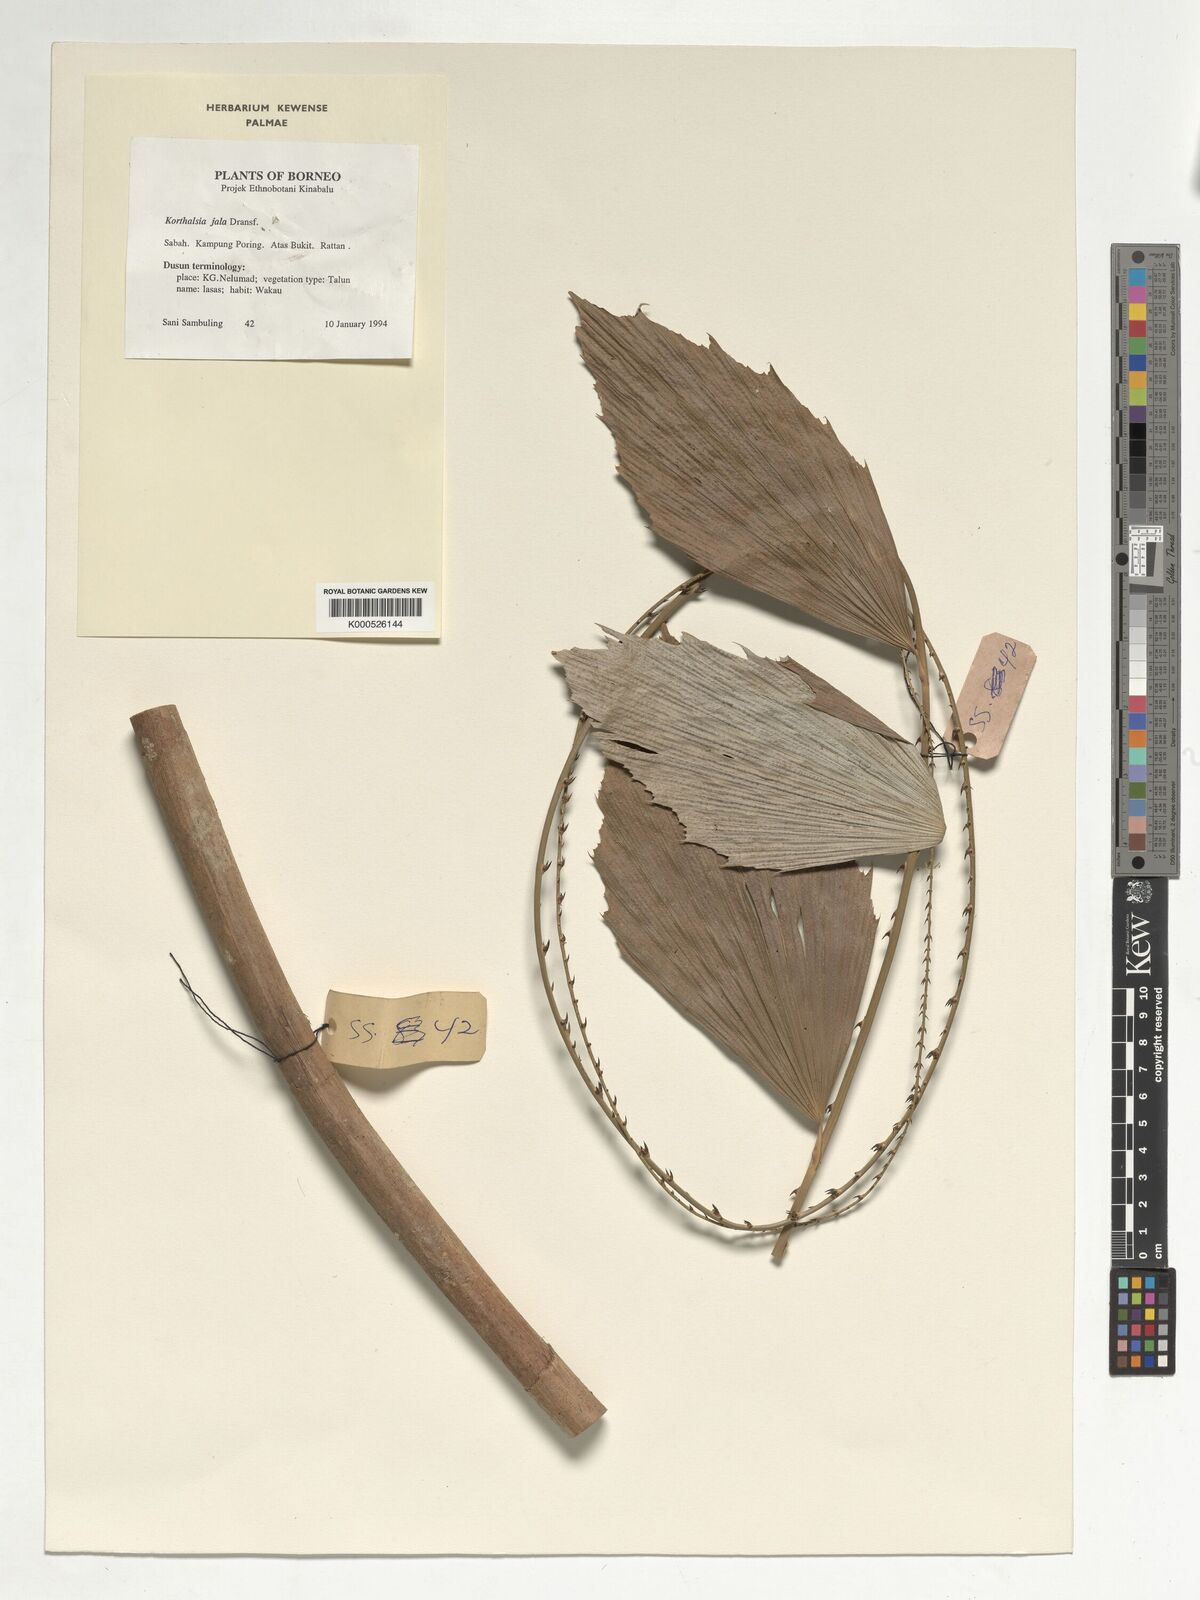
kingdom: Plantae
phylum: Tracheophyta
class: Liliopsida
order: Arecales
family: Arecaceae
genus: Korthalsia
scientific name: Korthalsia jala
